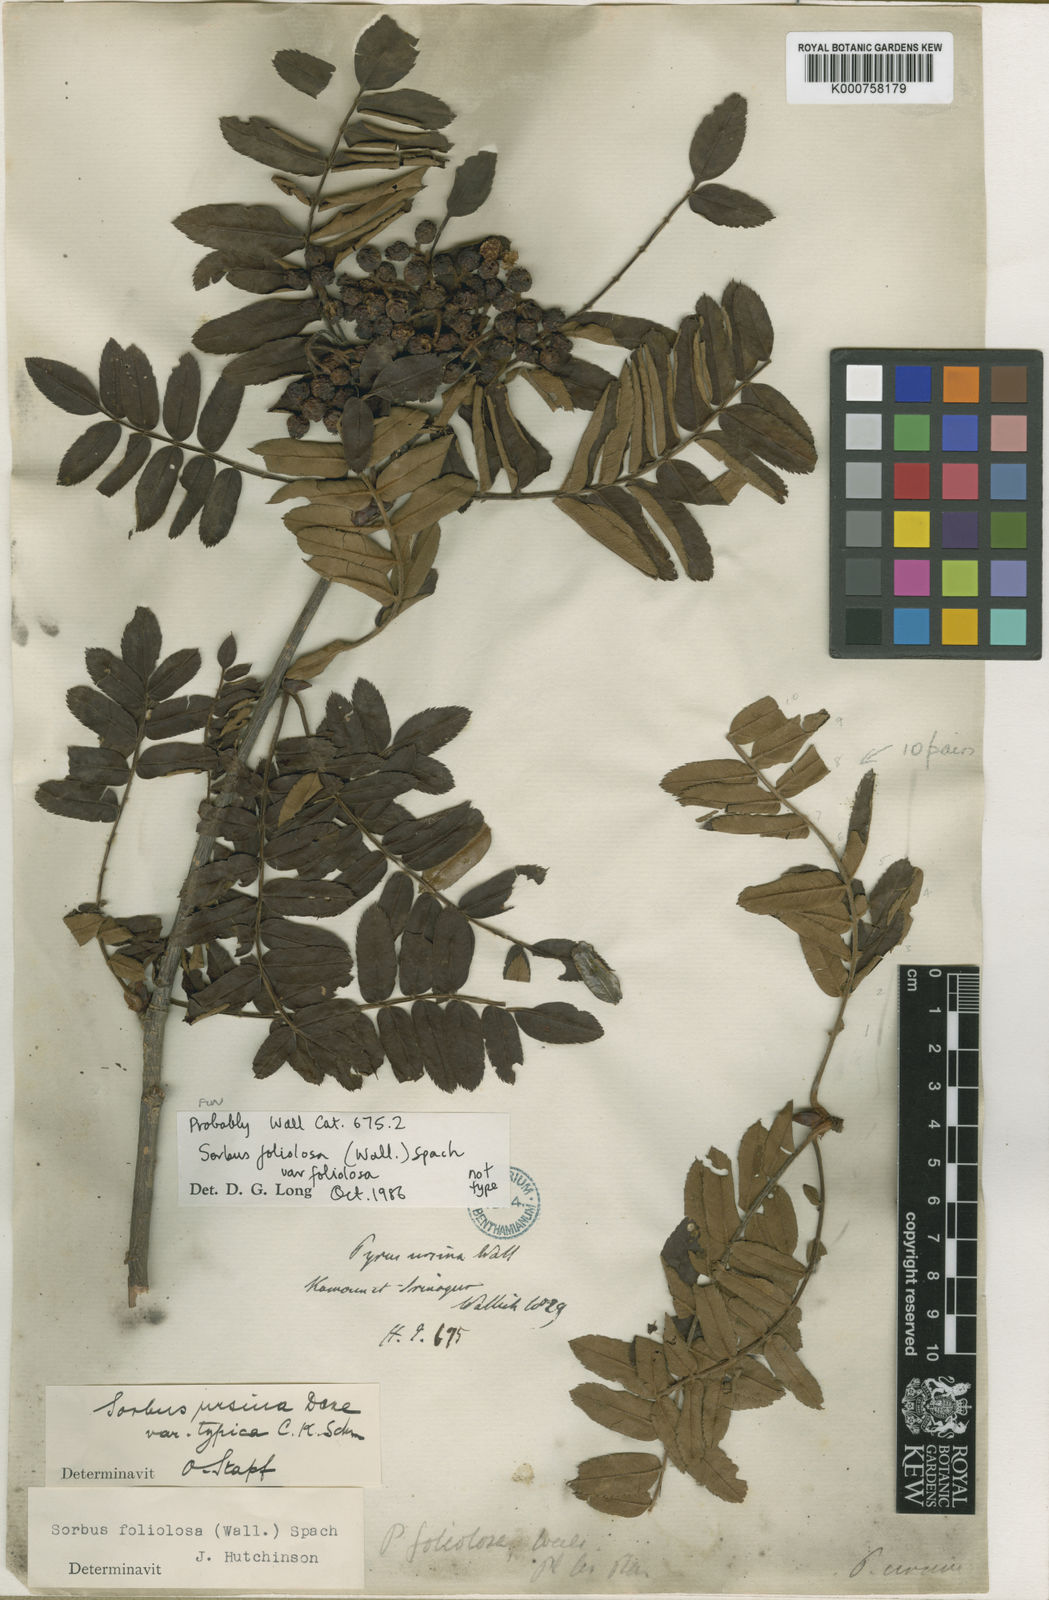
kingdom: Plantae
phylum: Tracheophyta
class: Magnoliopsida
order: Rosales
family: Rosaceae
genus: Sorbus
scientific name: Sorbus foliolosa
